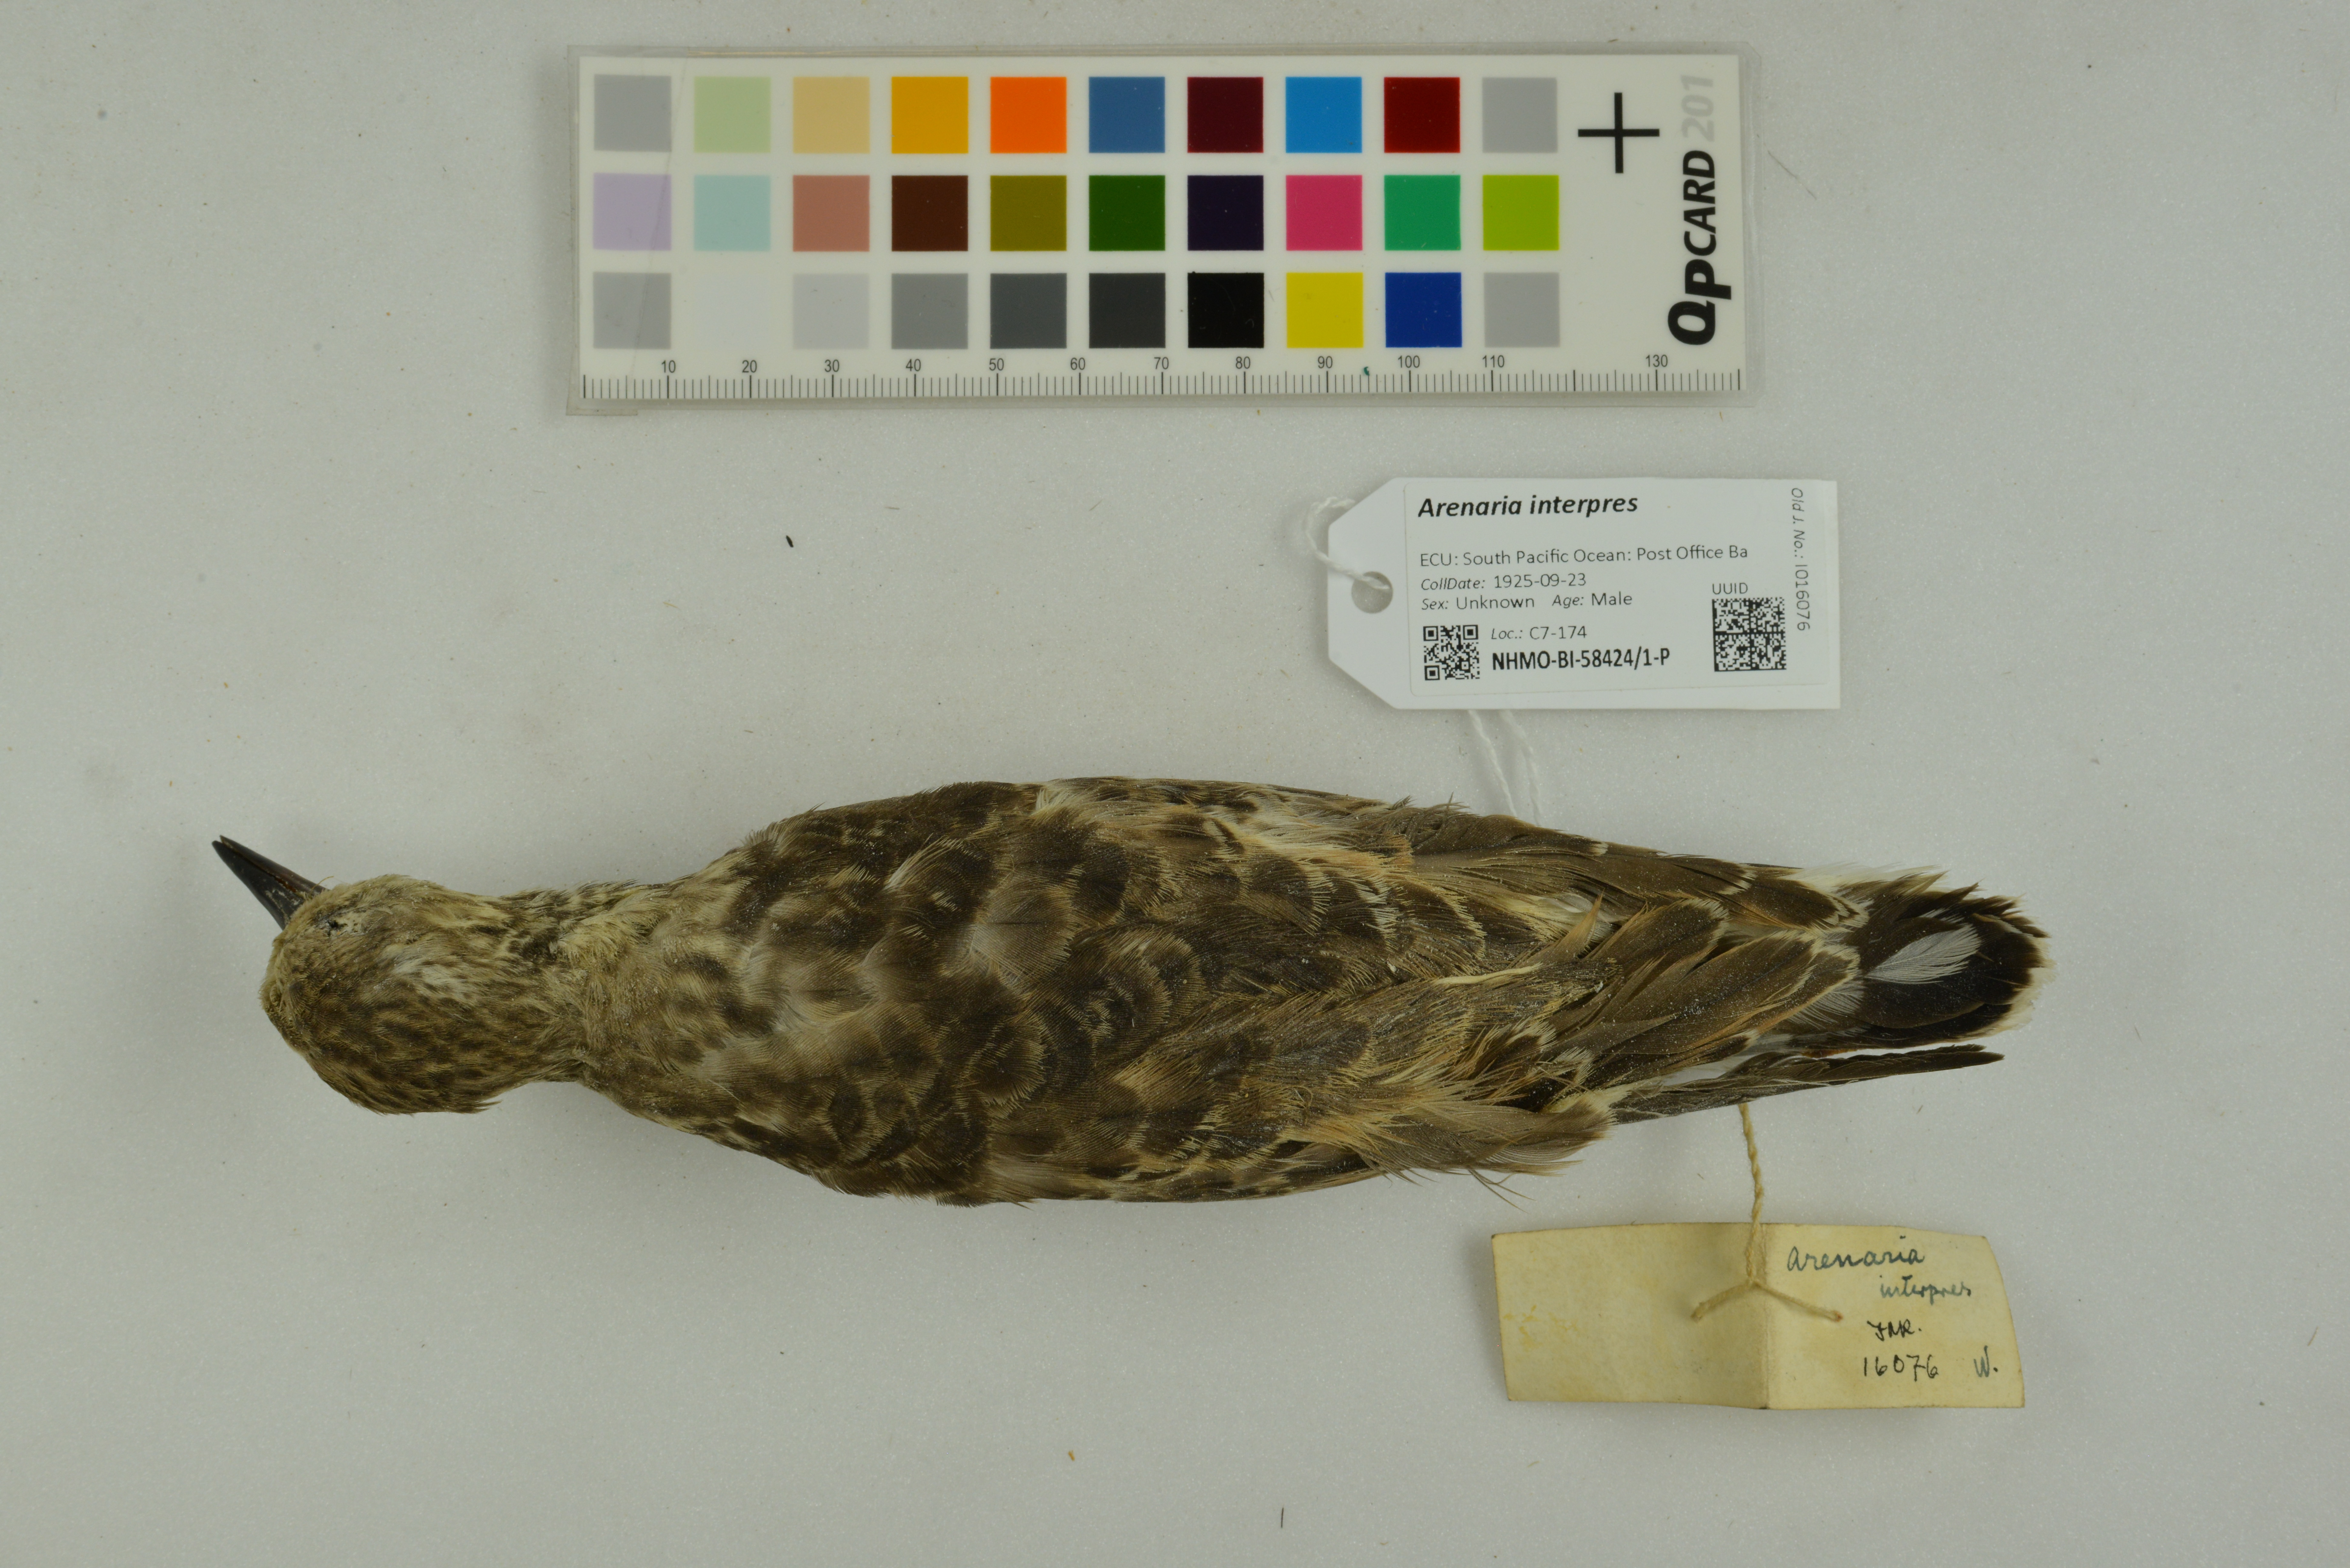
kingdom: Animalia
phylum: Chordata
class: Aves
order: Charadriiformes
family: Scolopacidae
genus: Arenaria
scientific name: Arenaria interpres
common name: Ruddy turnstone
